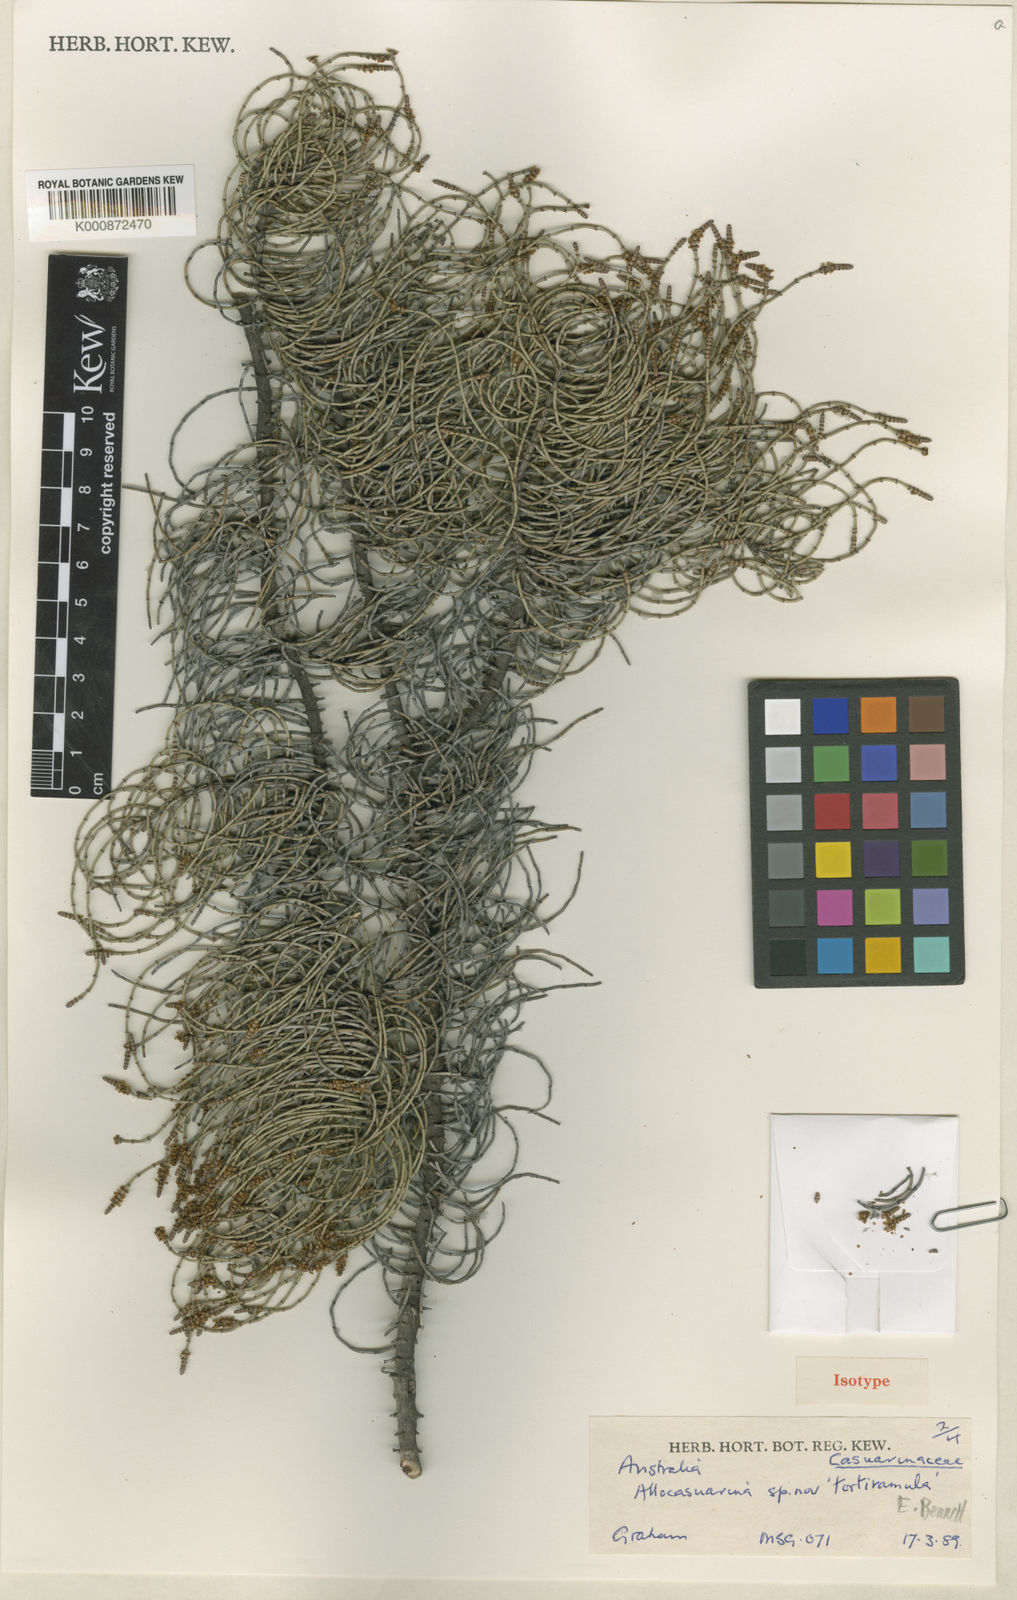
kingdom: Plantae
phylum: Tracheophyta
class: Magnoliopsida
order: Fagales
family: Casuarinaceae
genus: Allocasuarina
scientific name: Allocasuarina tortiramula
